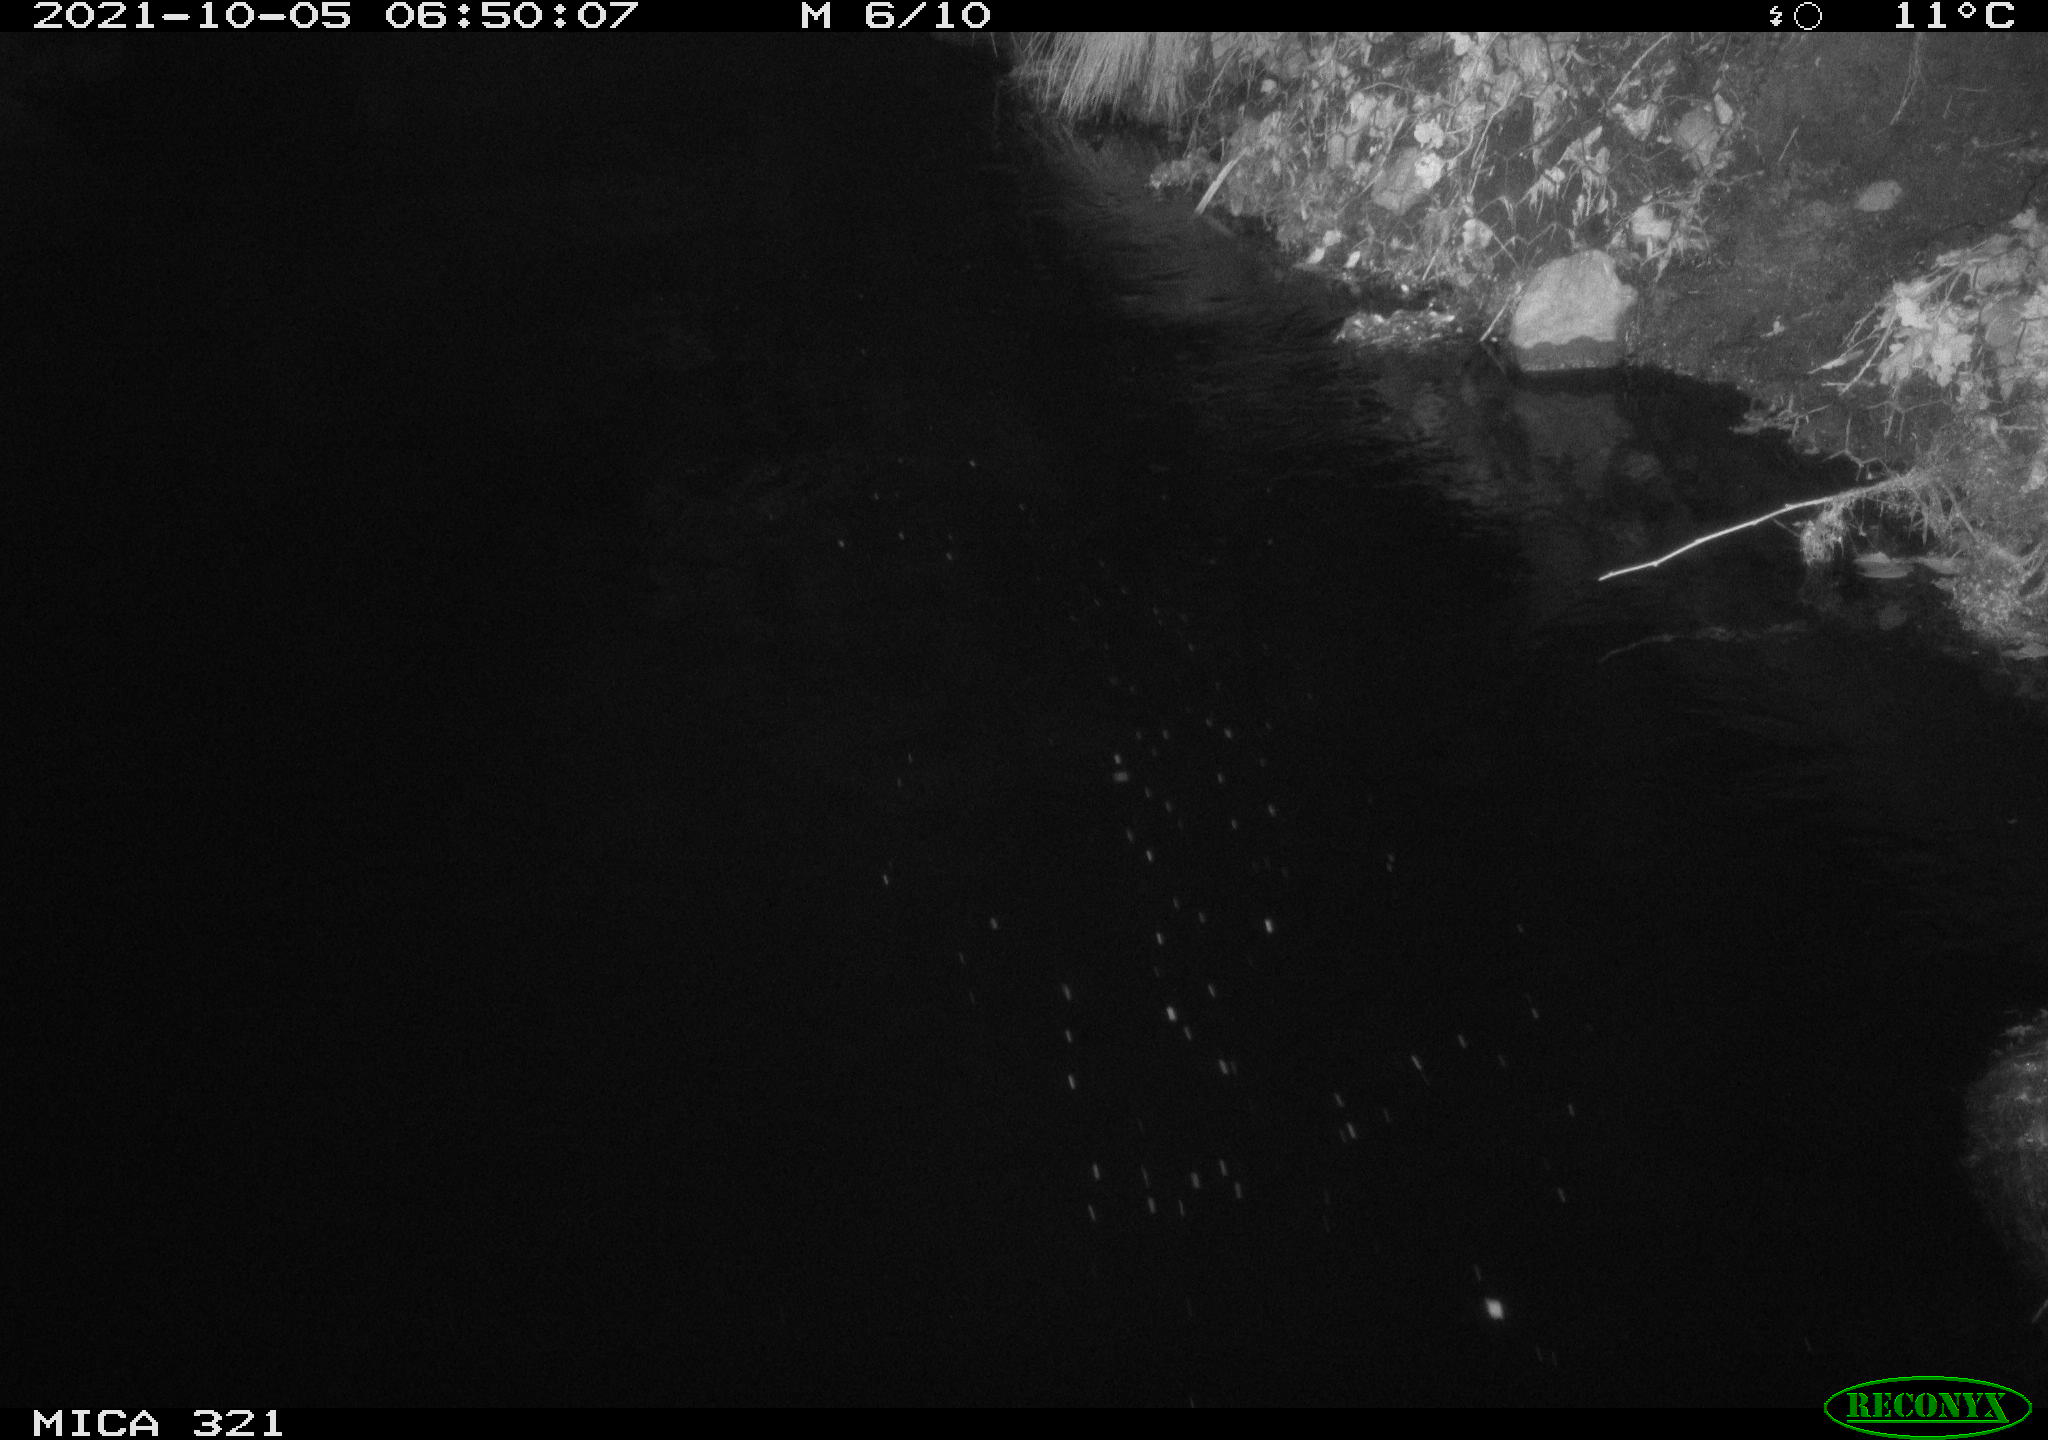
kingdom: Animalia
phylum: Chordata
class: Aves
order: Anseriformes
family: Anatidae
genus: Anas
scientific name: Anas platyrhynchos
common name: Mallard
